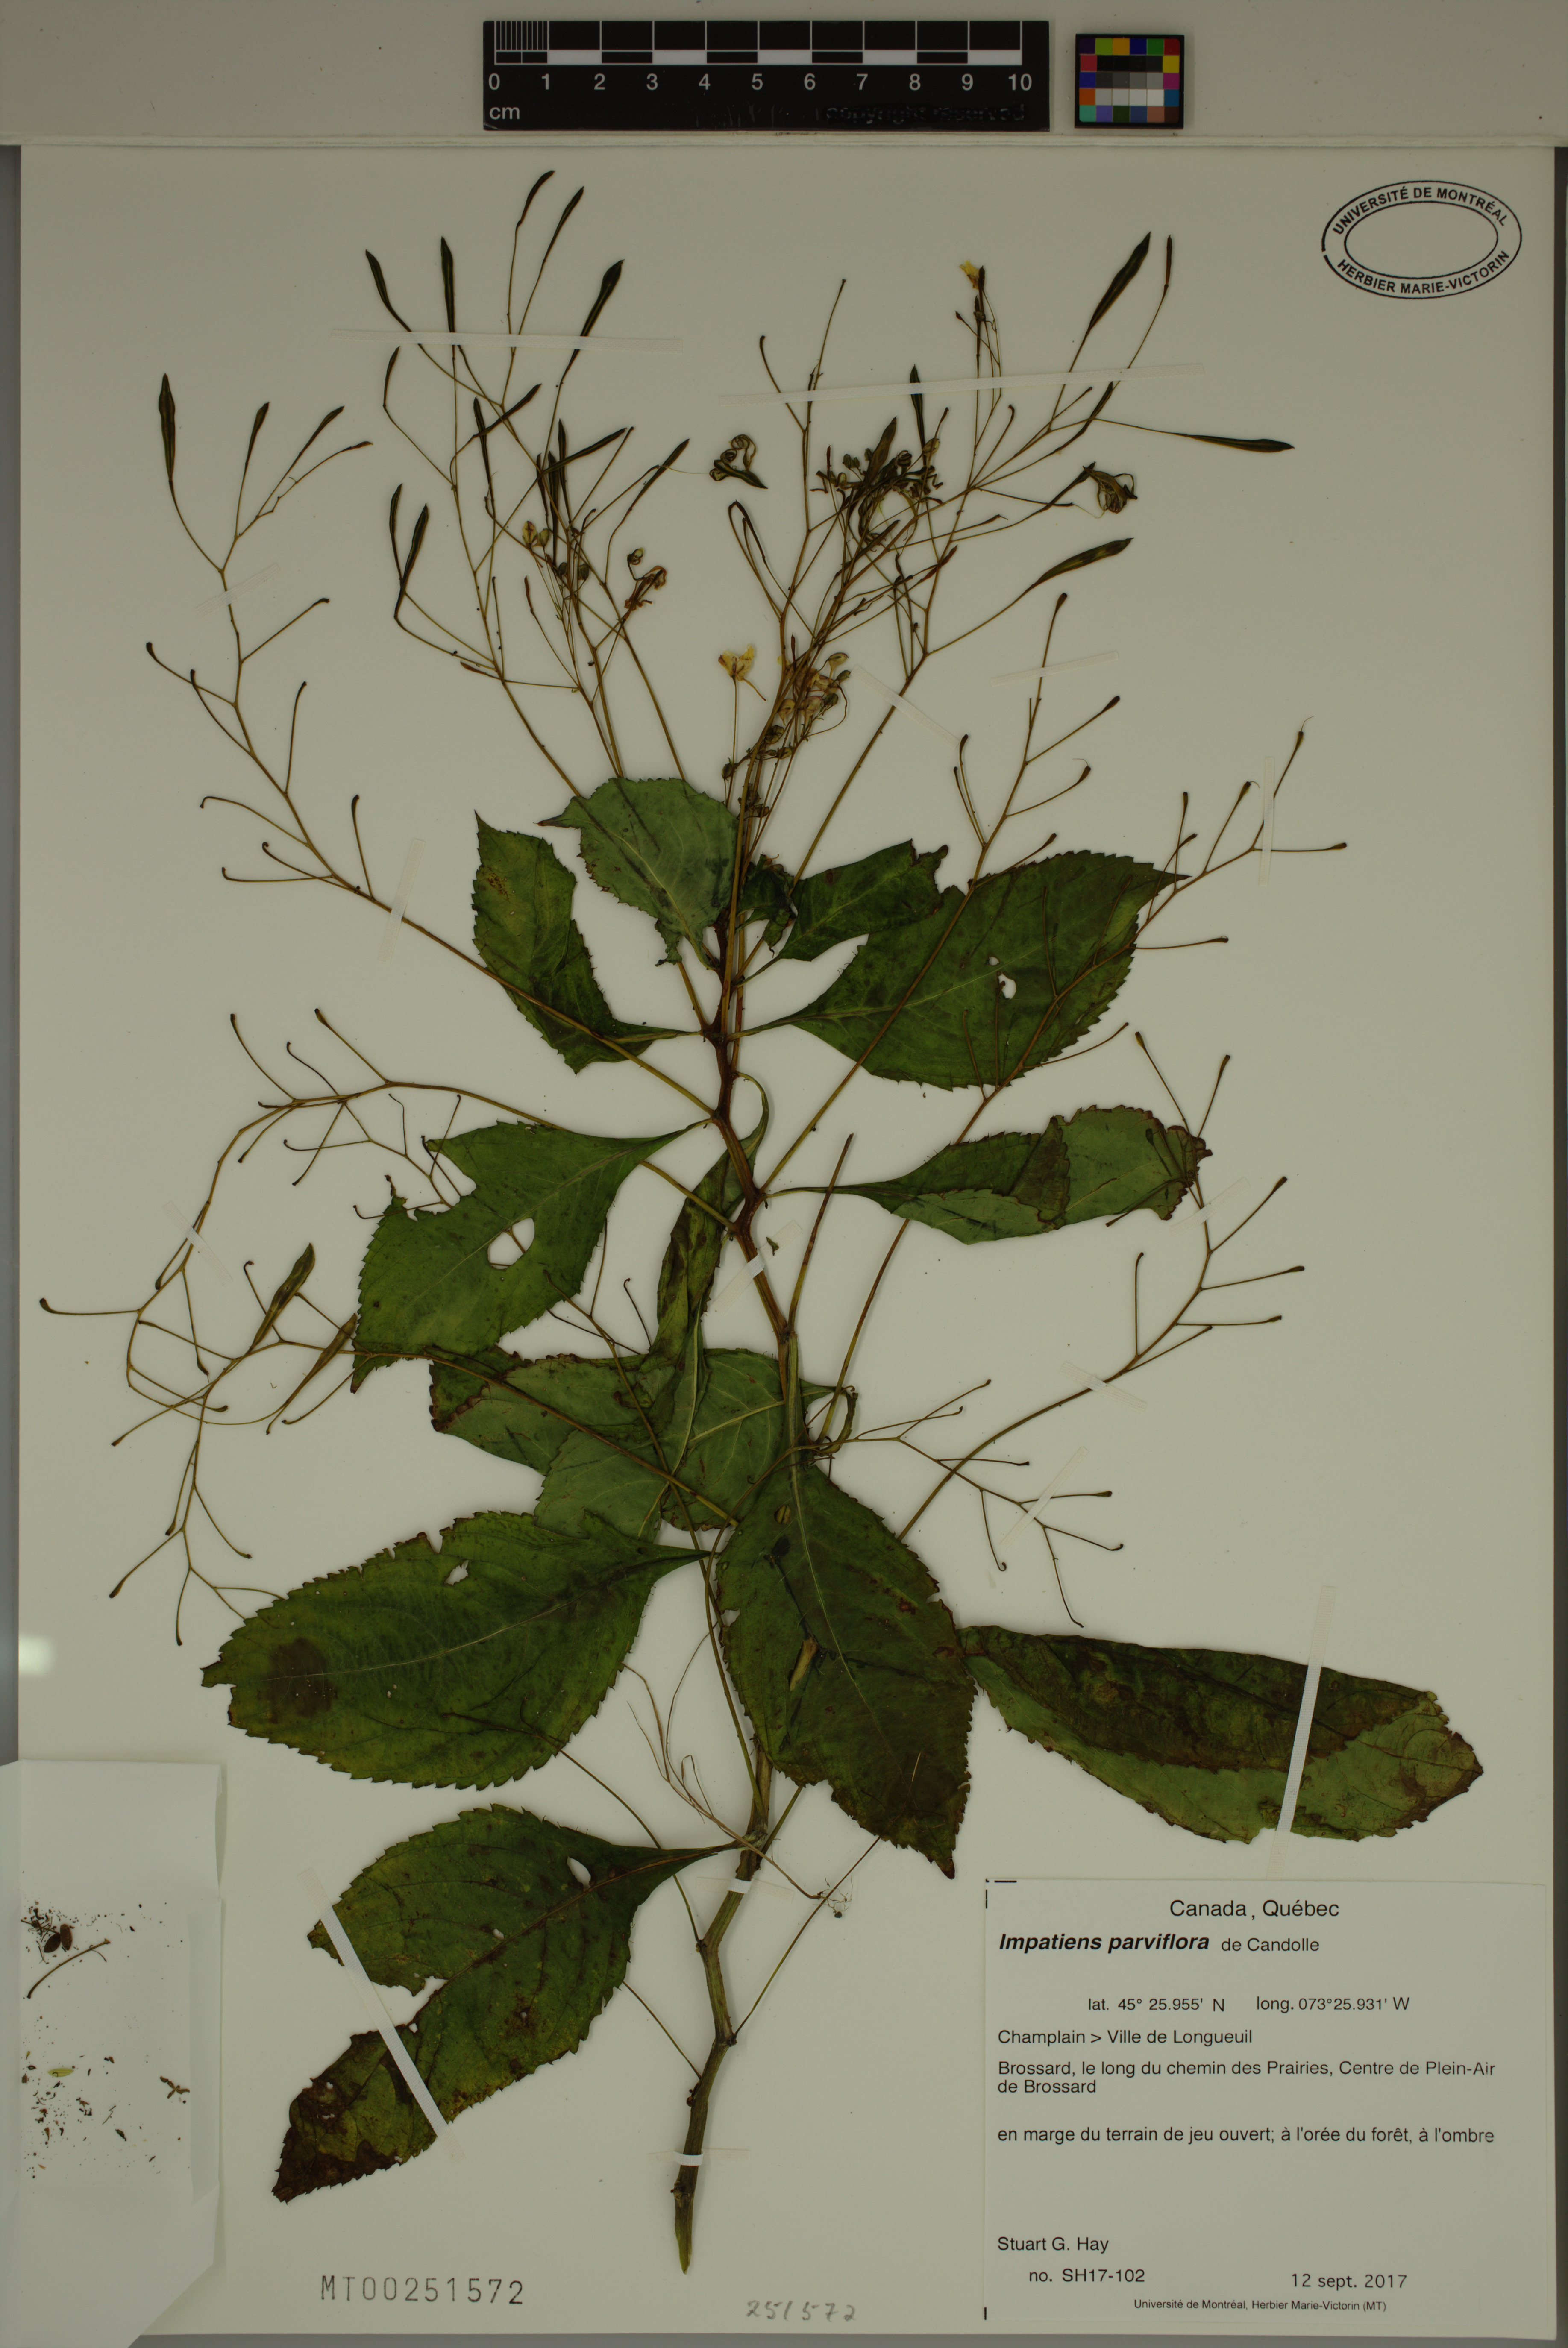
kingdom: Plantae
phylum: Tracheophyta
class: Magnoliopsida
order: Ericales
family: Balsaminaceae
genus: Impatiens
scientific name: Impatiens parviflora
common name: Small balsam
